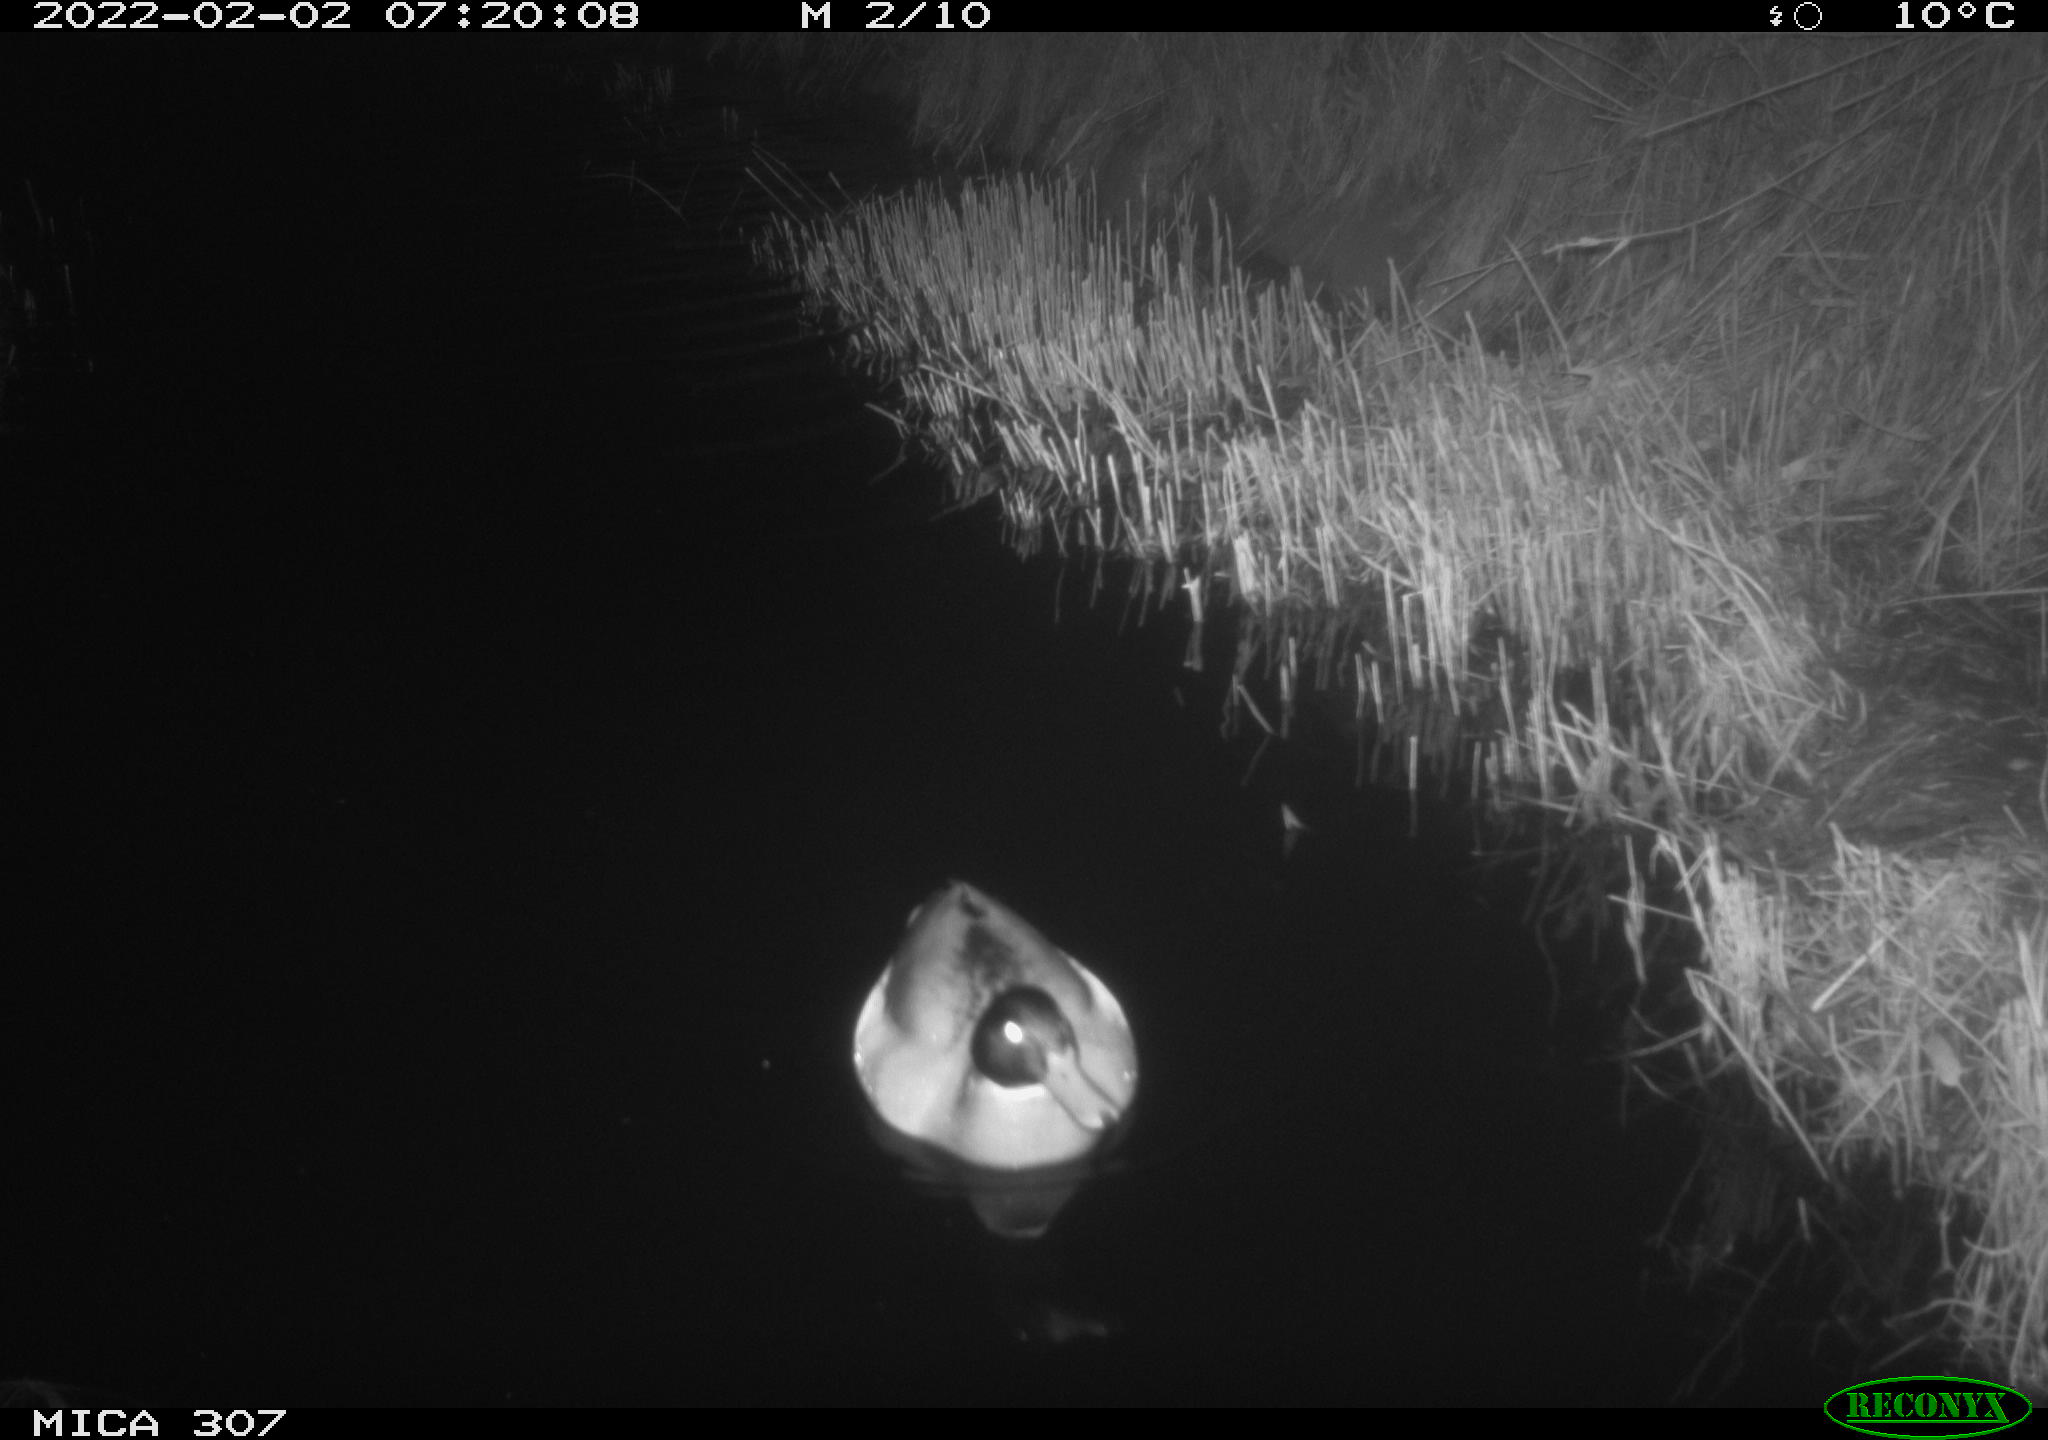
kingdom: Animalia
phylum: Chordata
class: Aves
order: Anseriformes
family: Anatidae
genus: Anas
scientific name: Anas
